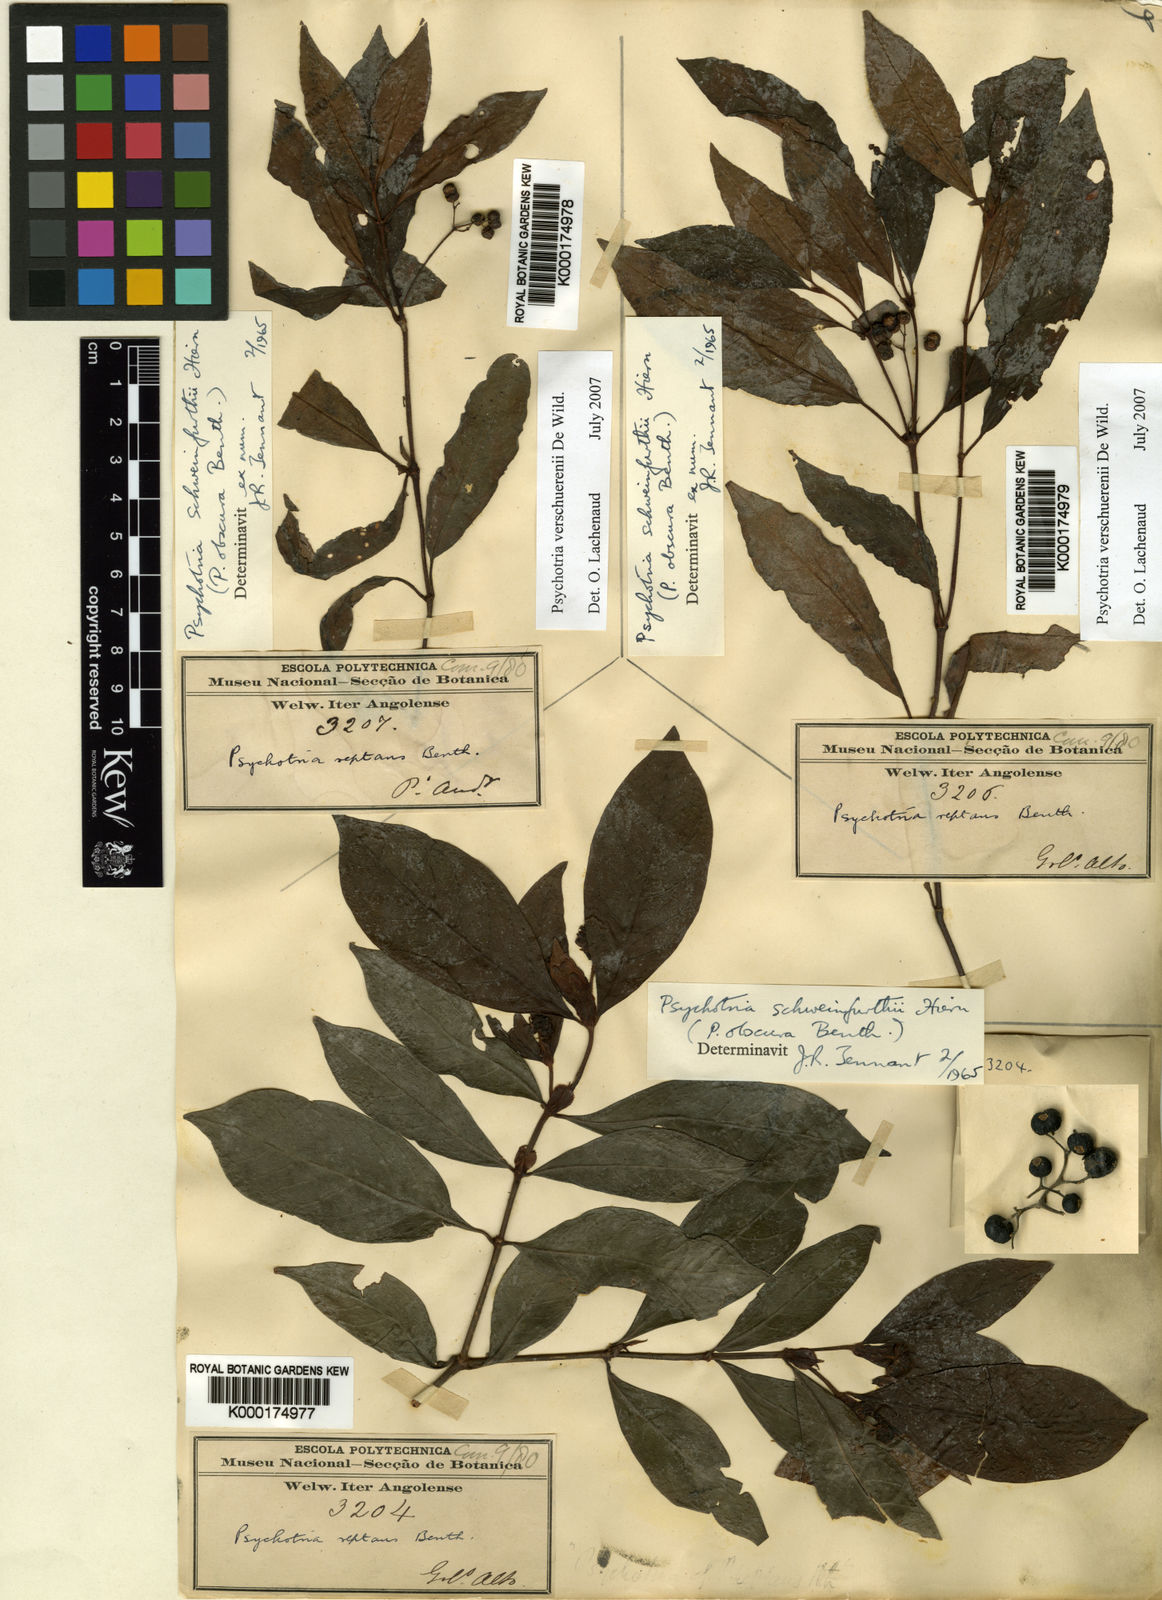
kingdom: Plantae
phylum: Tracheophyta
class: Magnoliopsida
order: Gentianales
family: Rubiaceae
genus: Psychotria
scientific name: Psychotria verschuerenii
